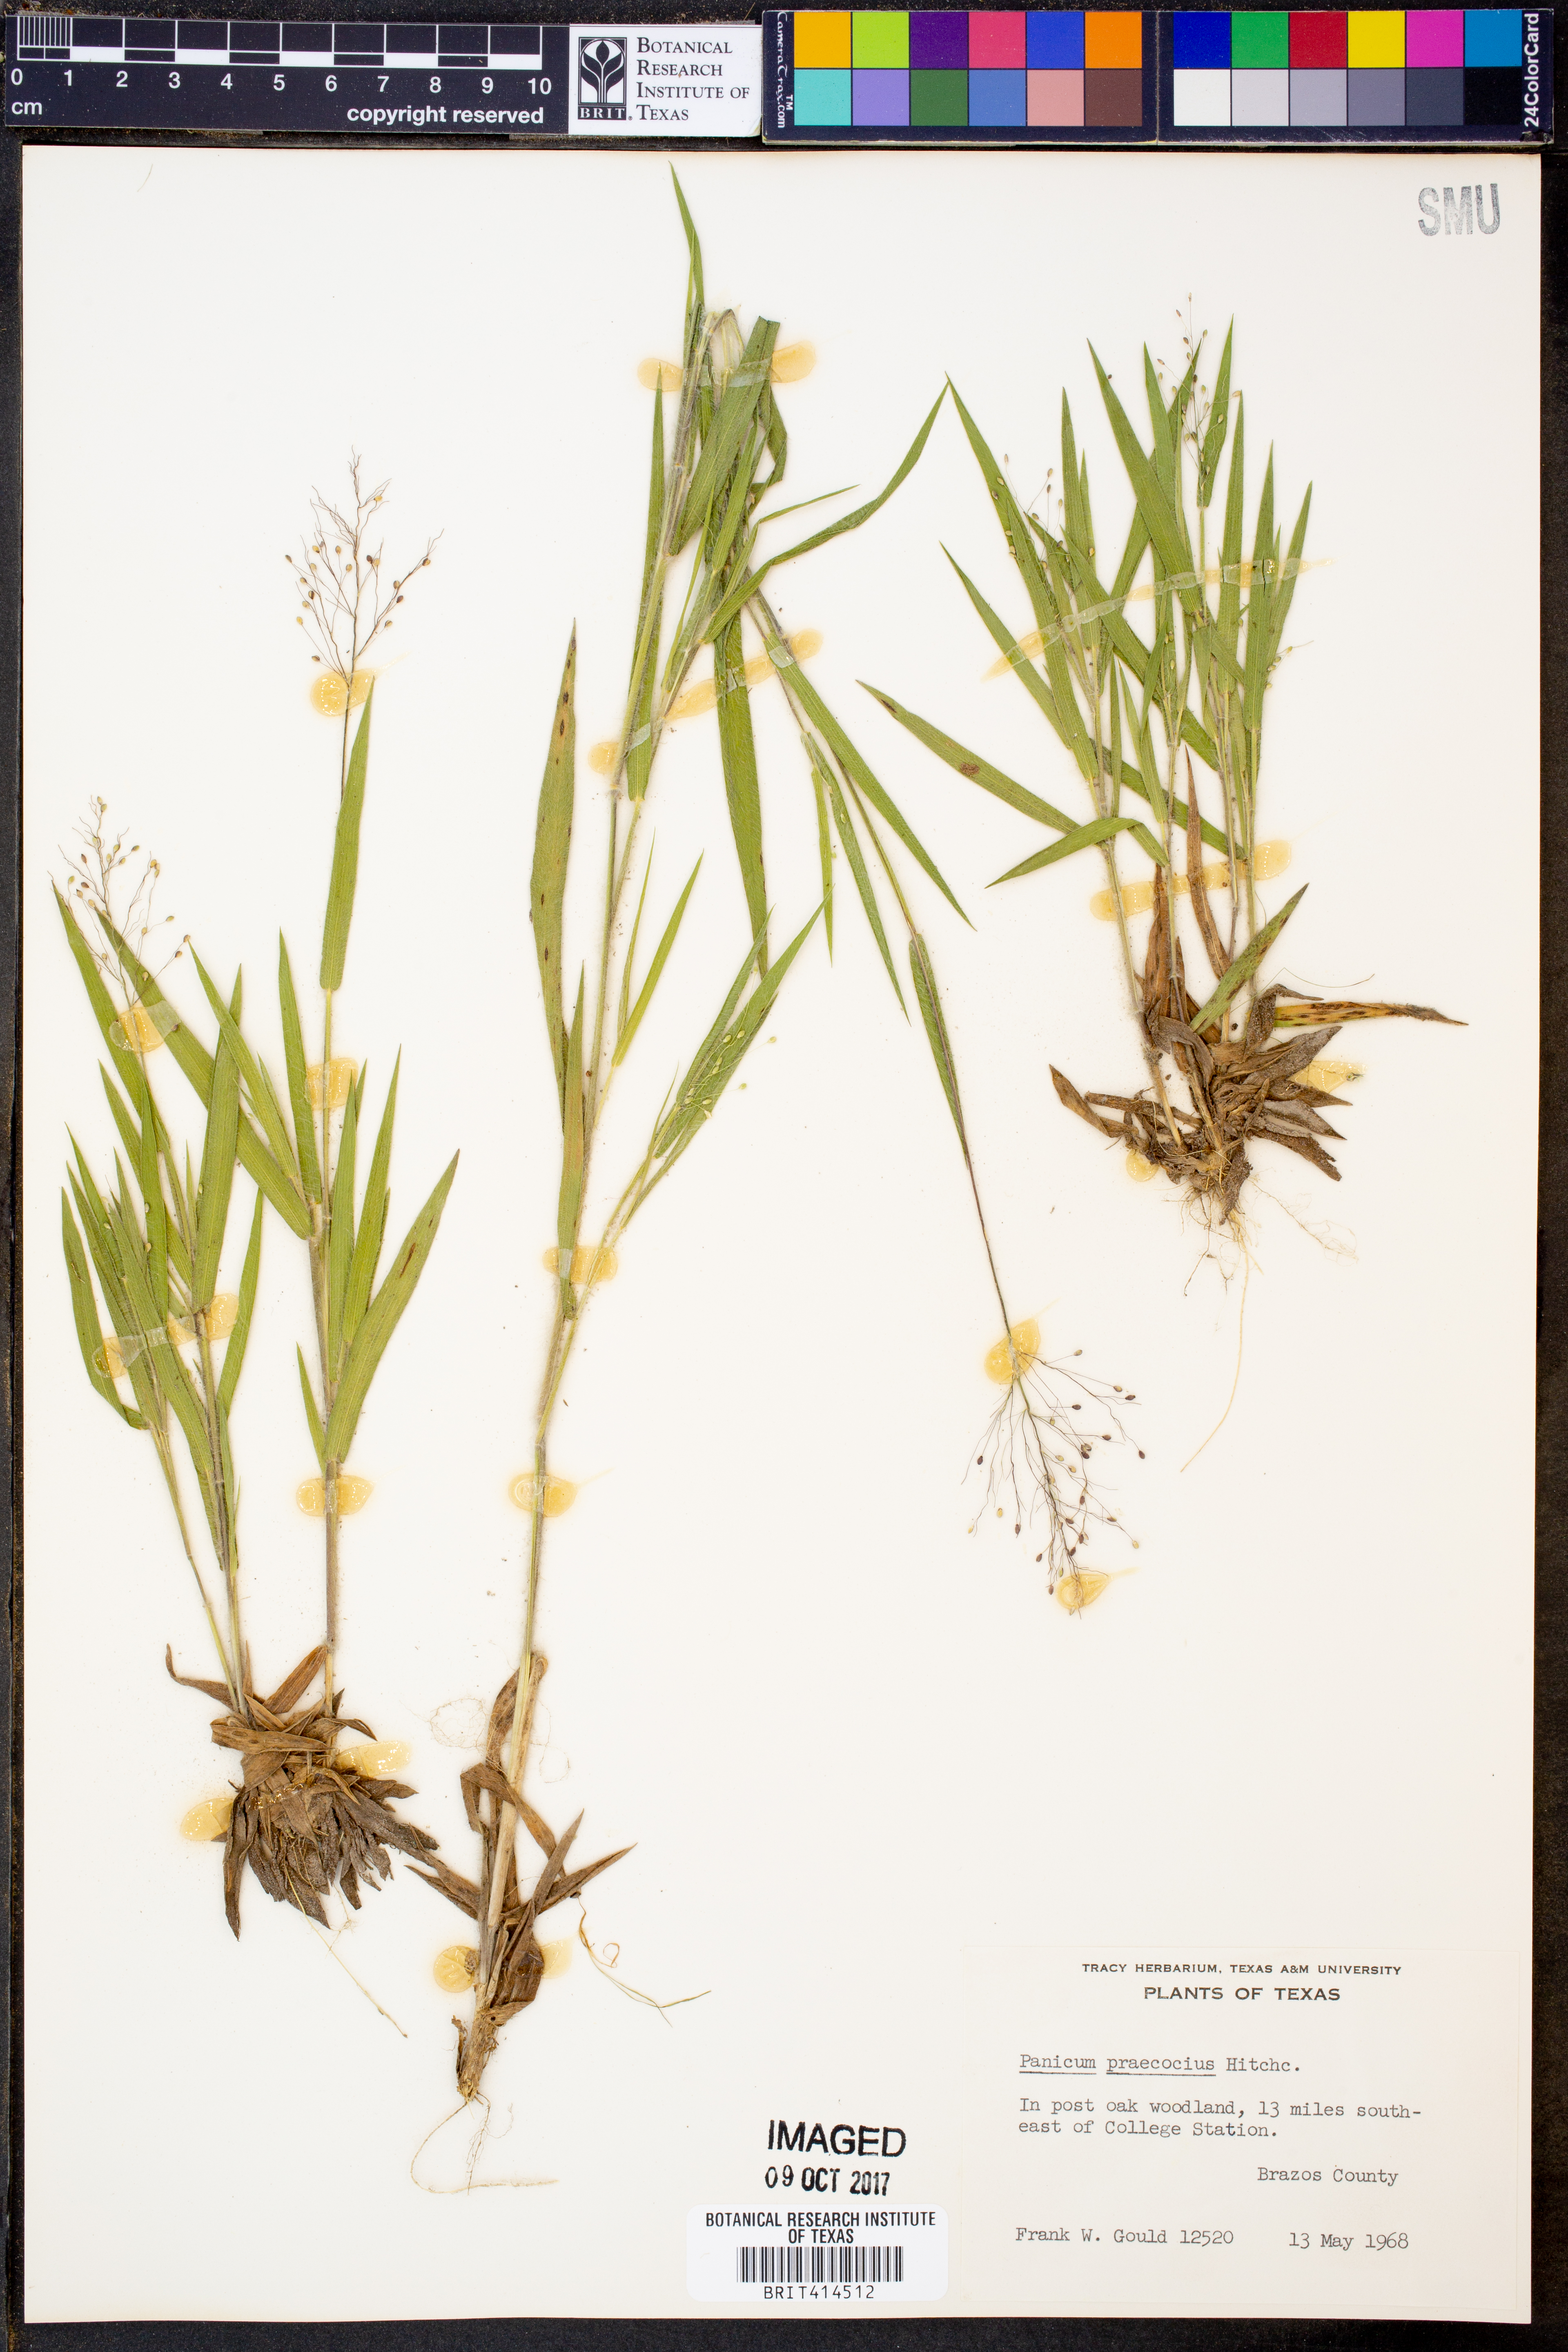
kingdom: Plantae
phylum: Tracheophyta
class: Liliopsida
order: Poales
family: Poaceae
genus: Dichanthelium
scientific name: Dichanthelium praecocius
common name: Early-branching panicgrass
